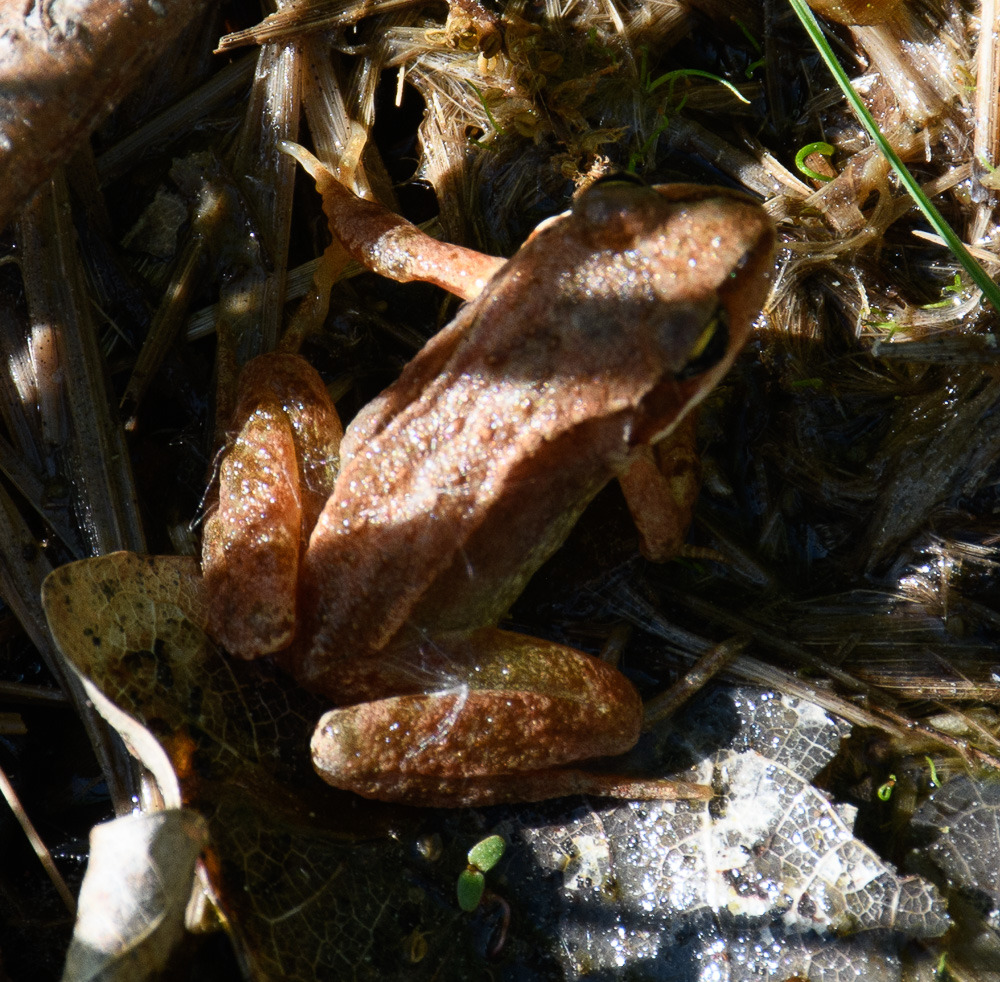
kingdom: Animalia
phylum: Chordata
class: Amphibia
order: Anura
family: Ranidae
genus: Rana
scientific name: Rana temporaria
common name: Butsnudet frø
